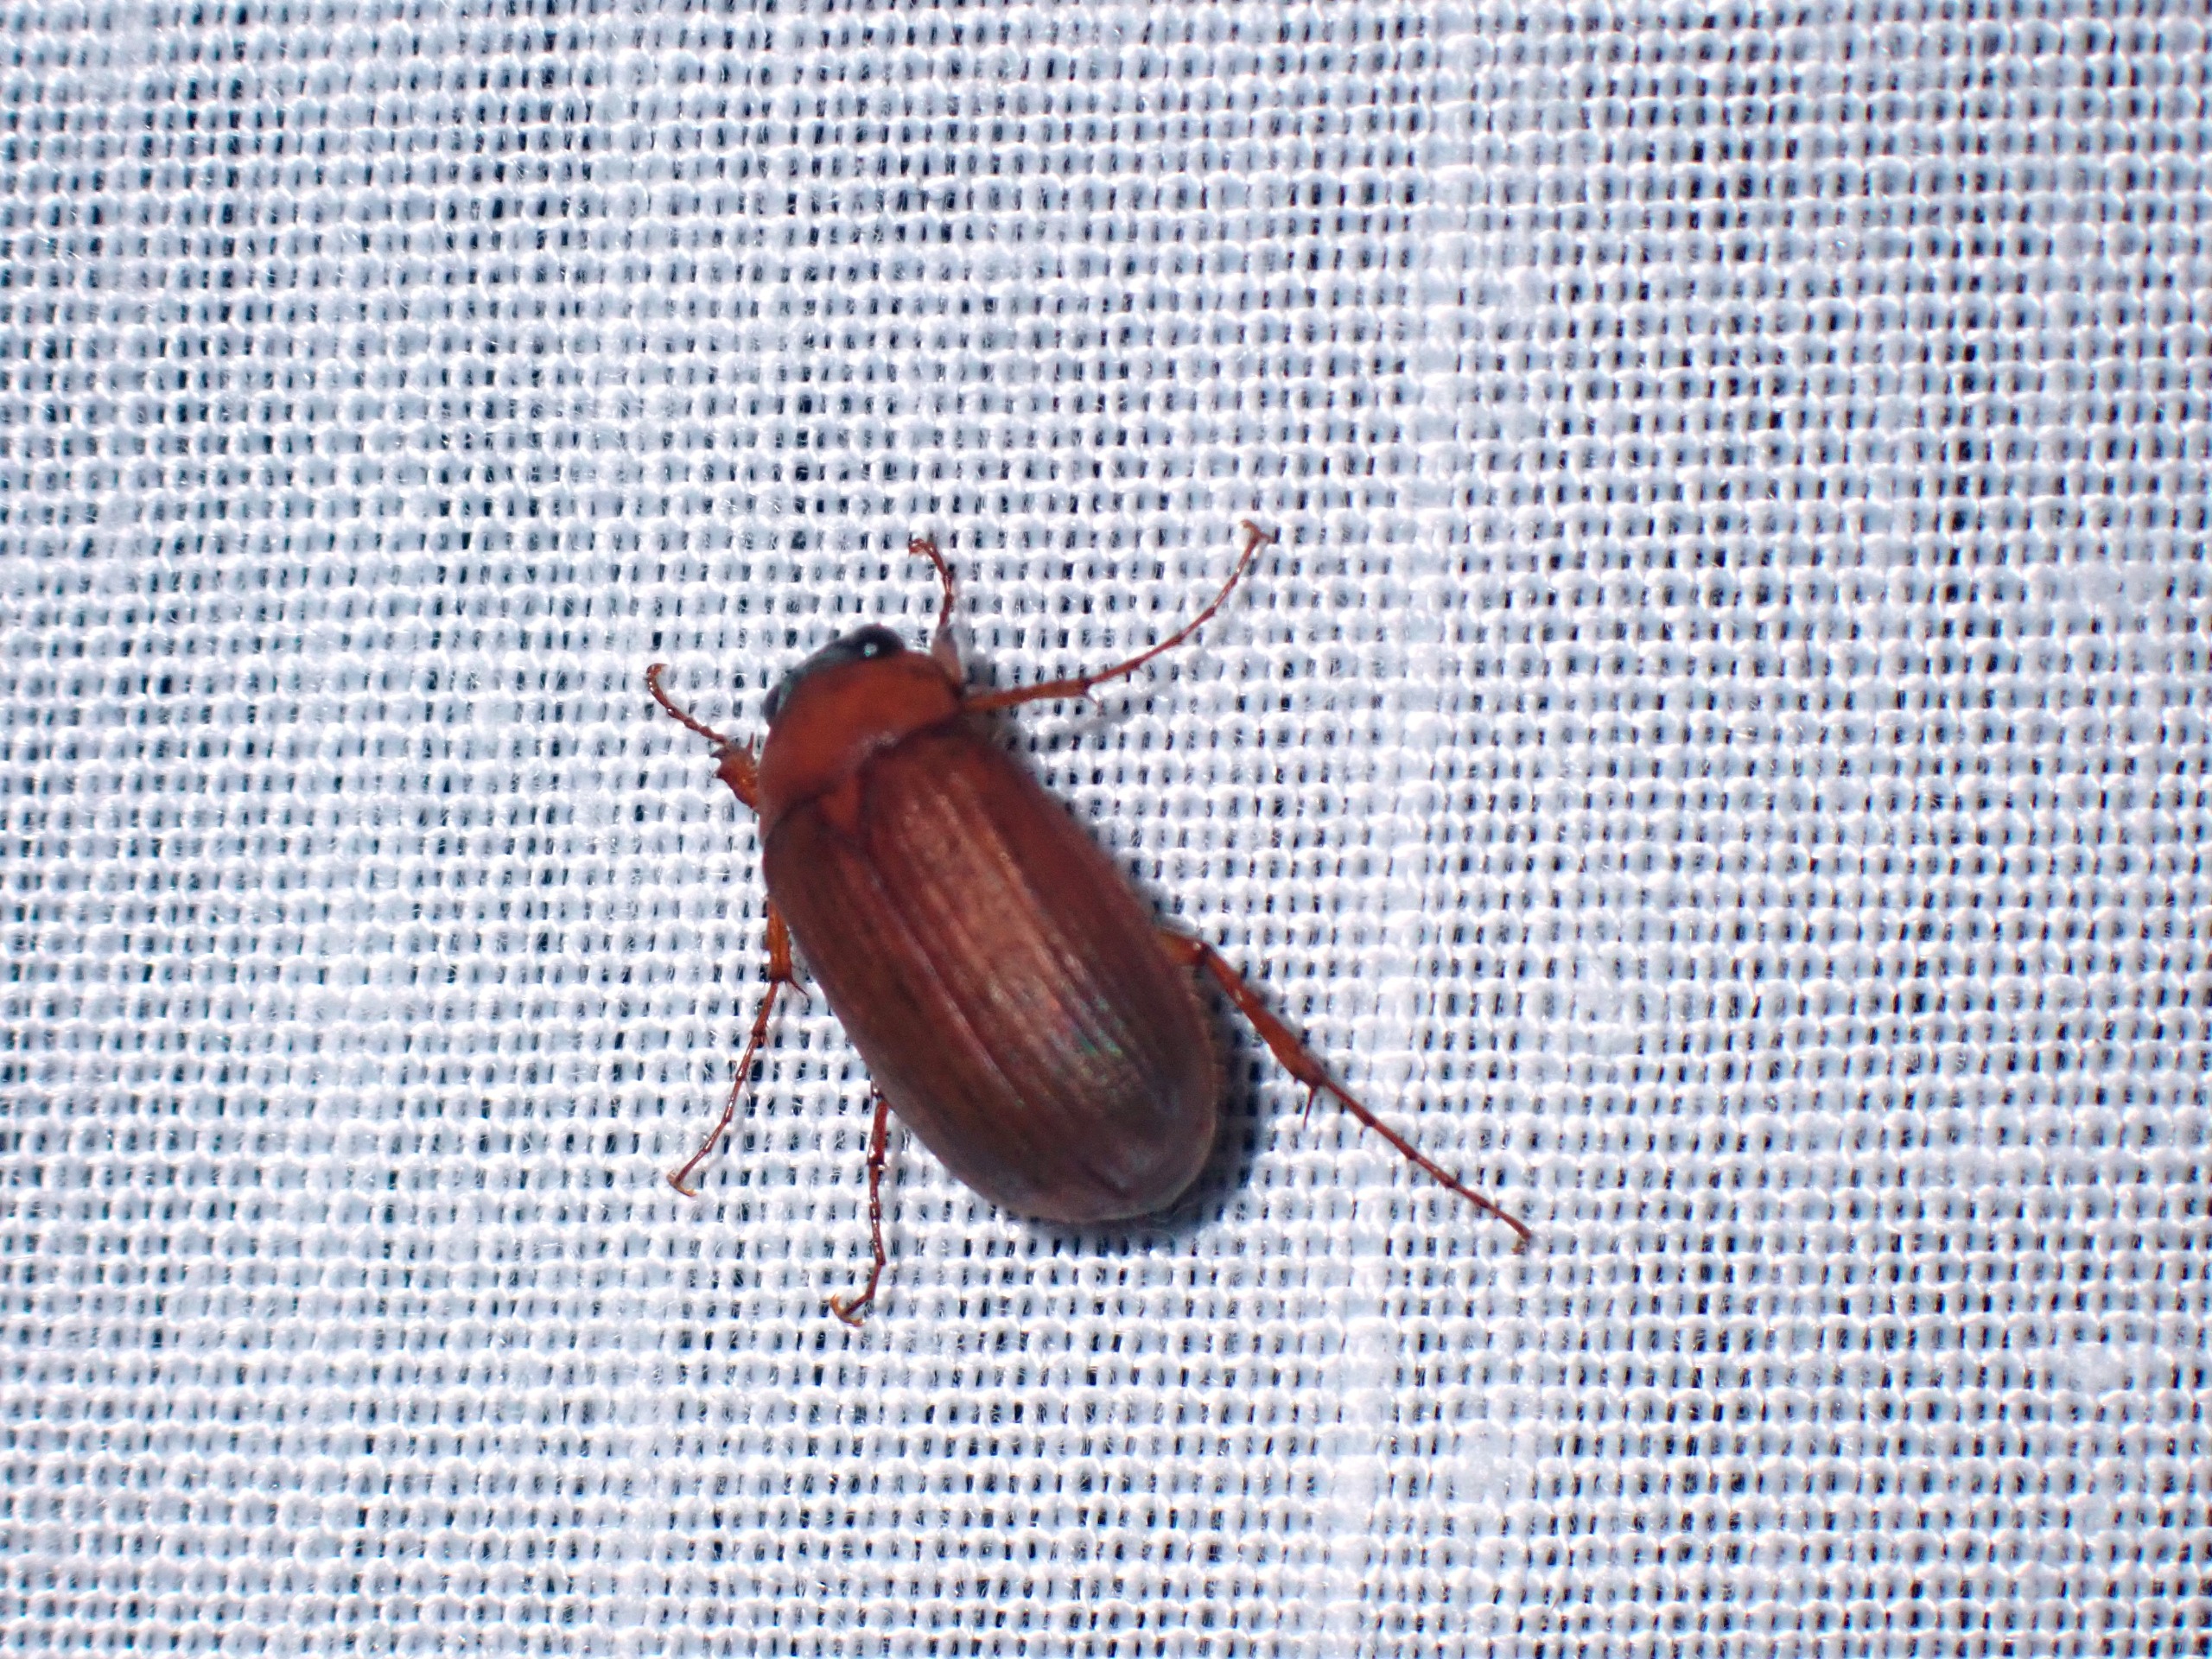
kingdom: Animalia
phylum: Arthropoda
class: Insecta
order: Coleoptera
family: Scarabaeidae
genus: Serica
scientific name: Serica brunnea
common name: Natoldenborre
